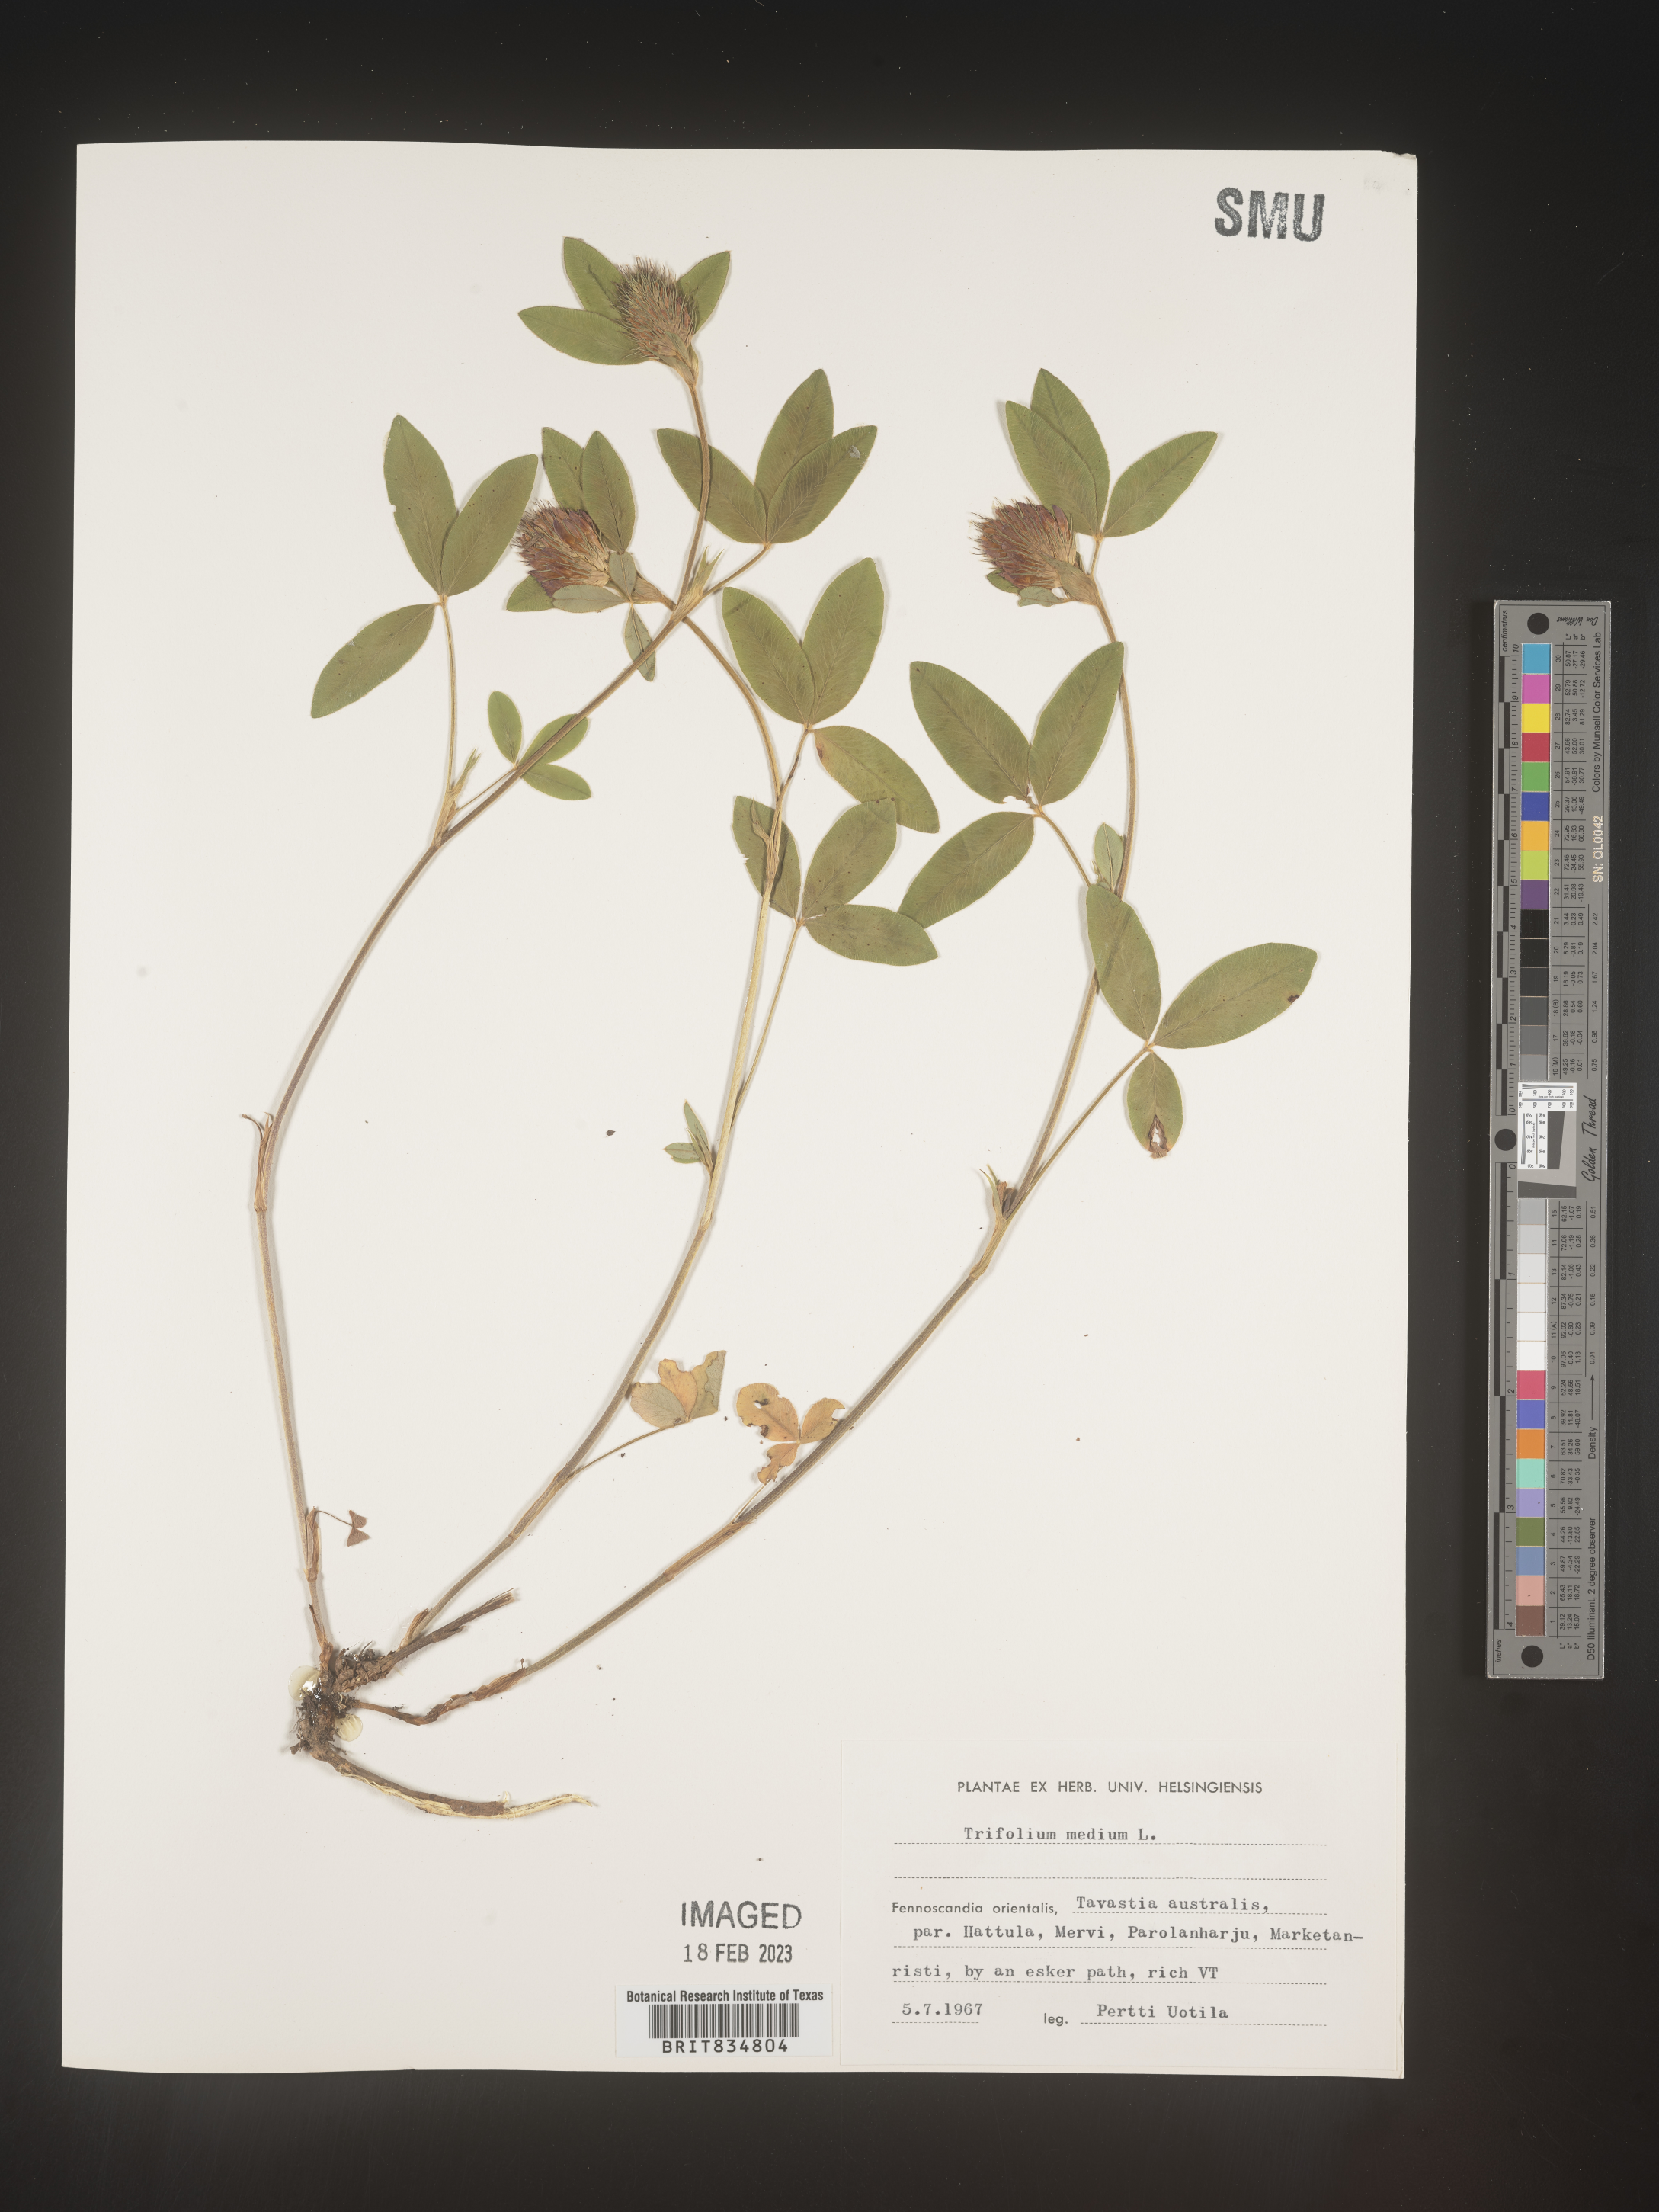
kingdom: Plantae
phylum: Tracheophyta
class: Magnoliopsida
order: Fabales
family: Fabaceae
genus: Trifolium
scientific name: Trifolium
